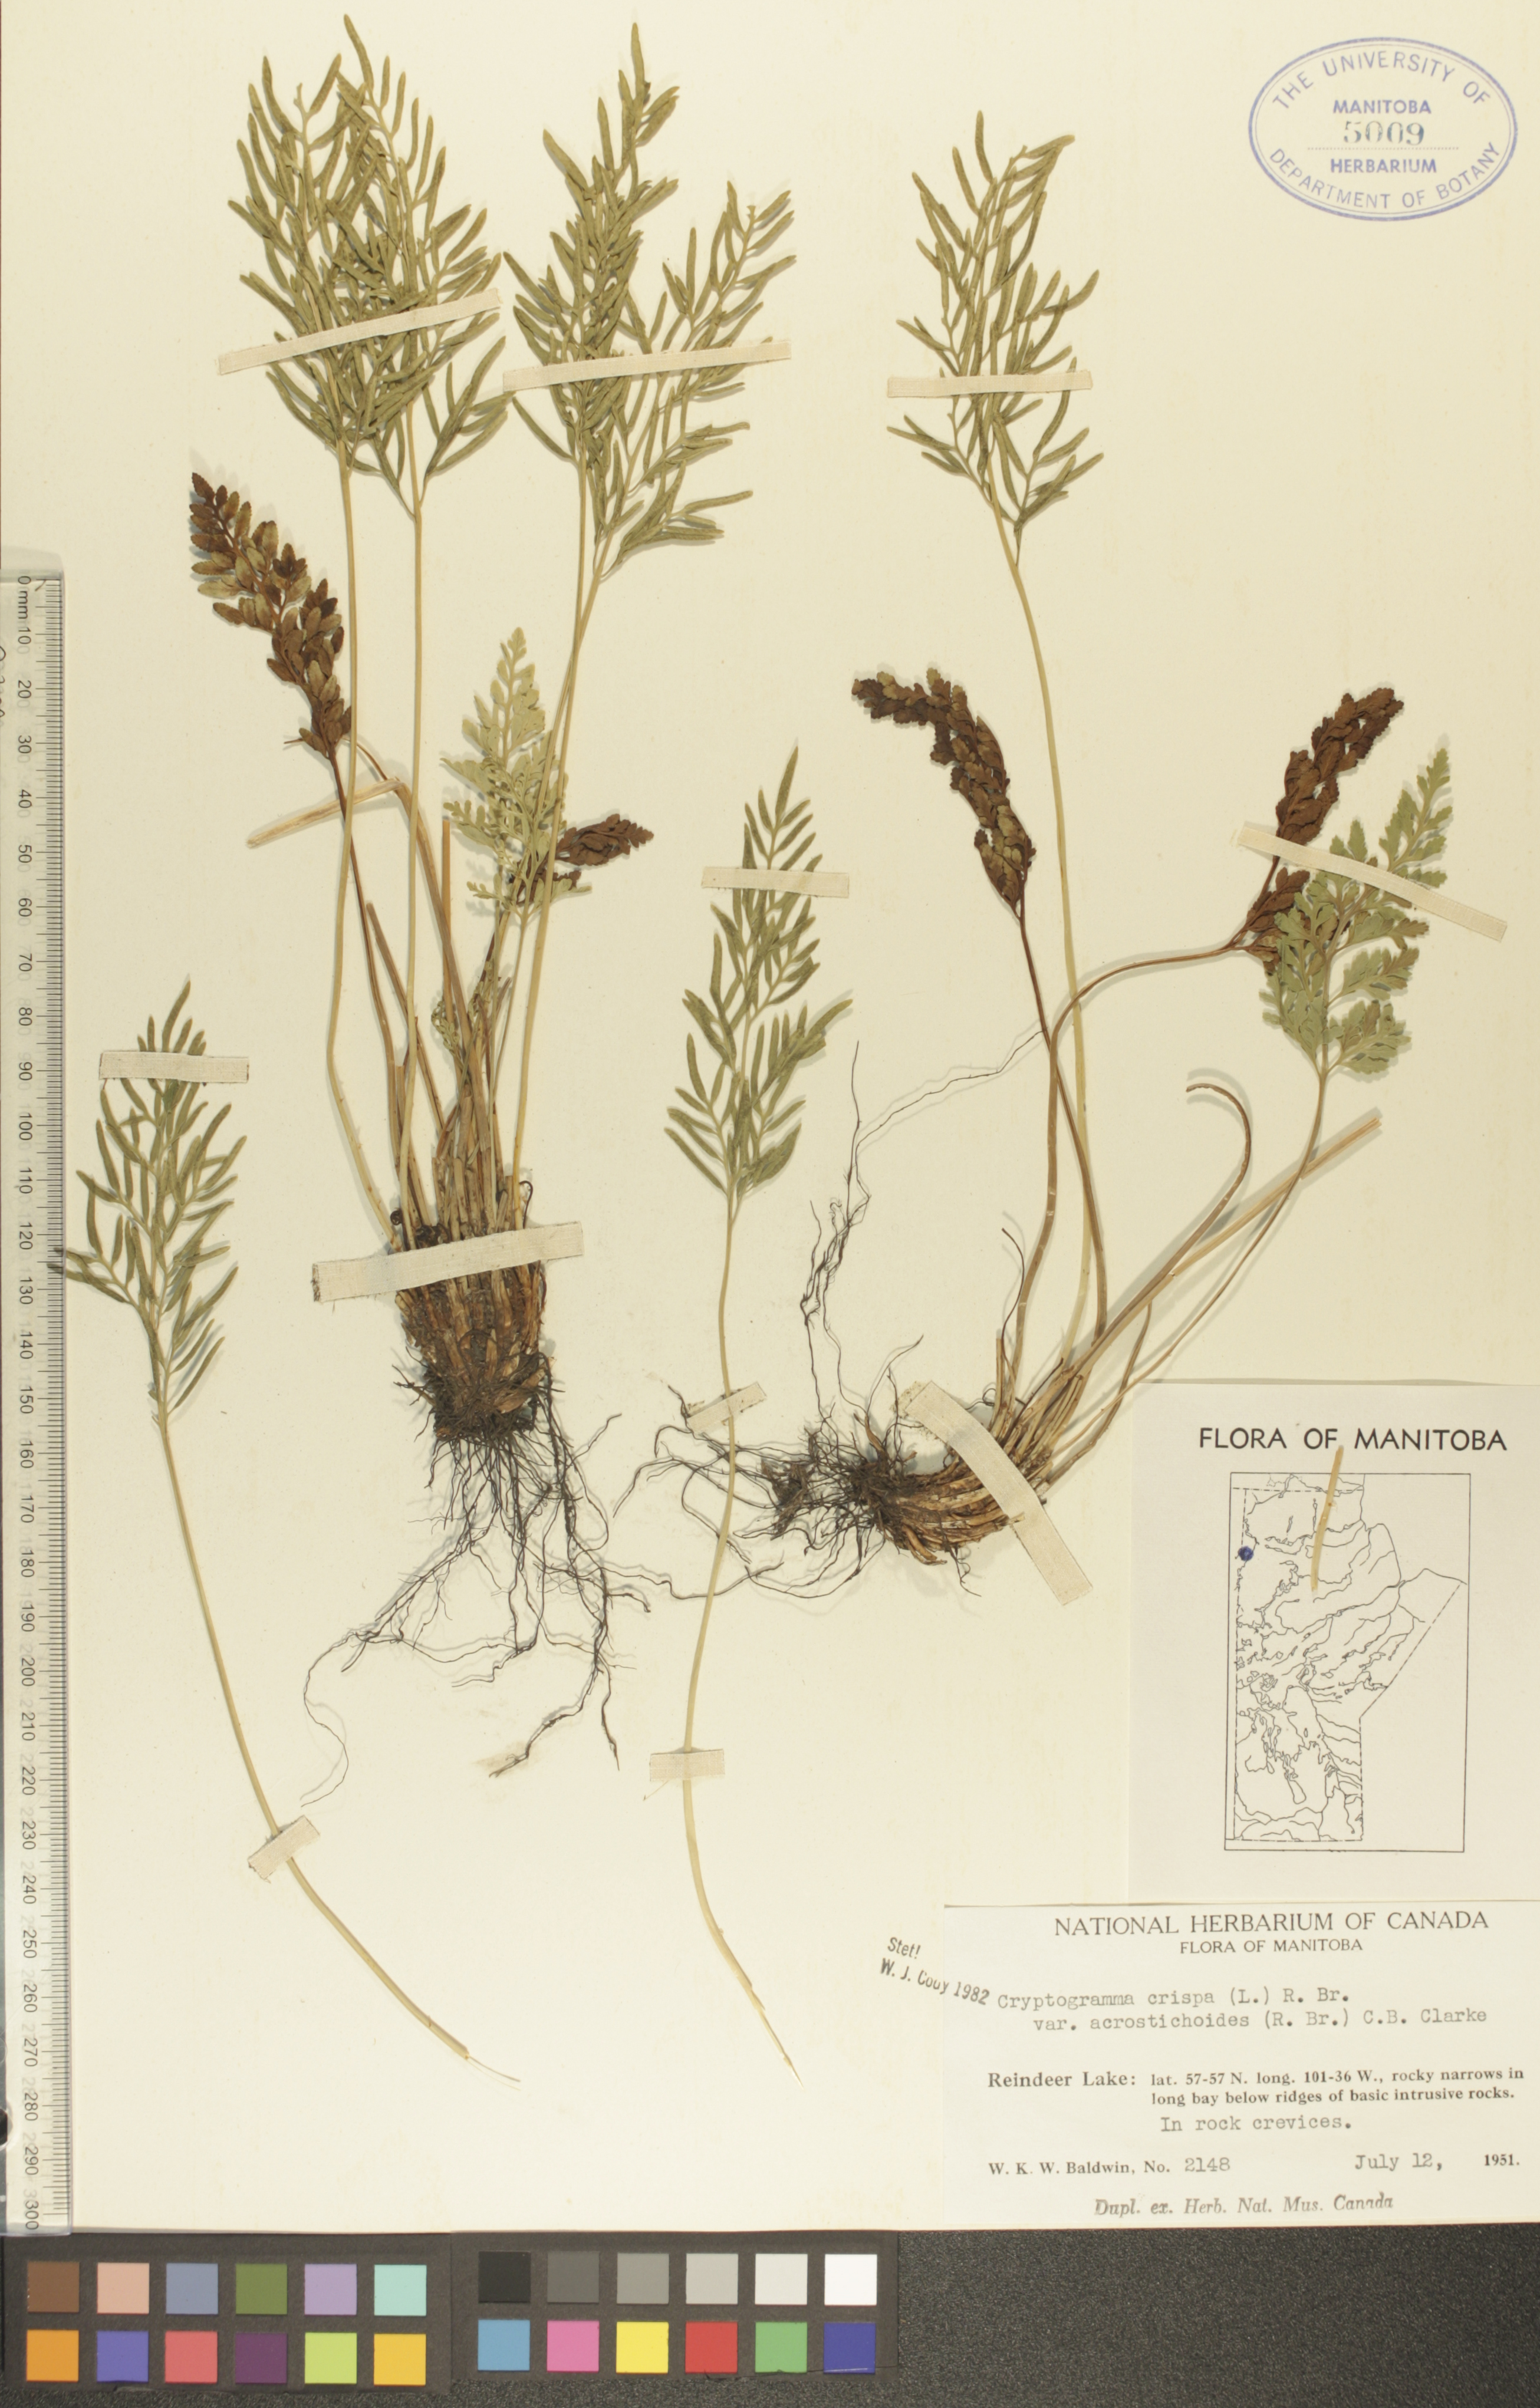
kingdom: Plantae
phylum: Tracheophyta
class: Polypodiopsida
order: Polypodiales
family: Pteridaceae
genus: Cryptogramma
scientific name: Cryptogramma acrostichoides
